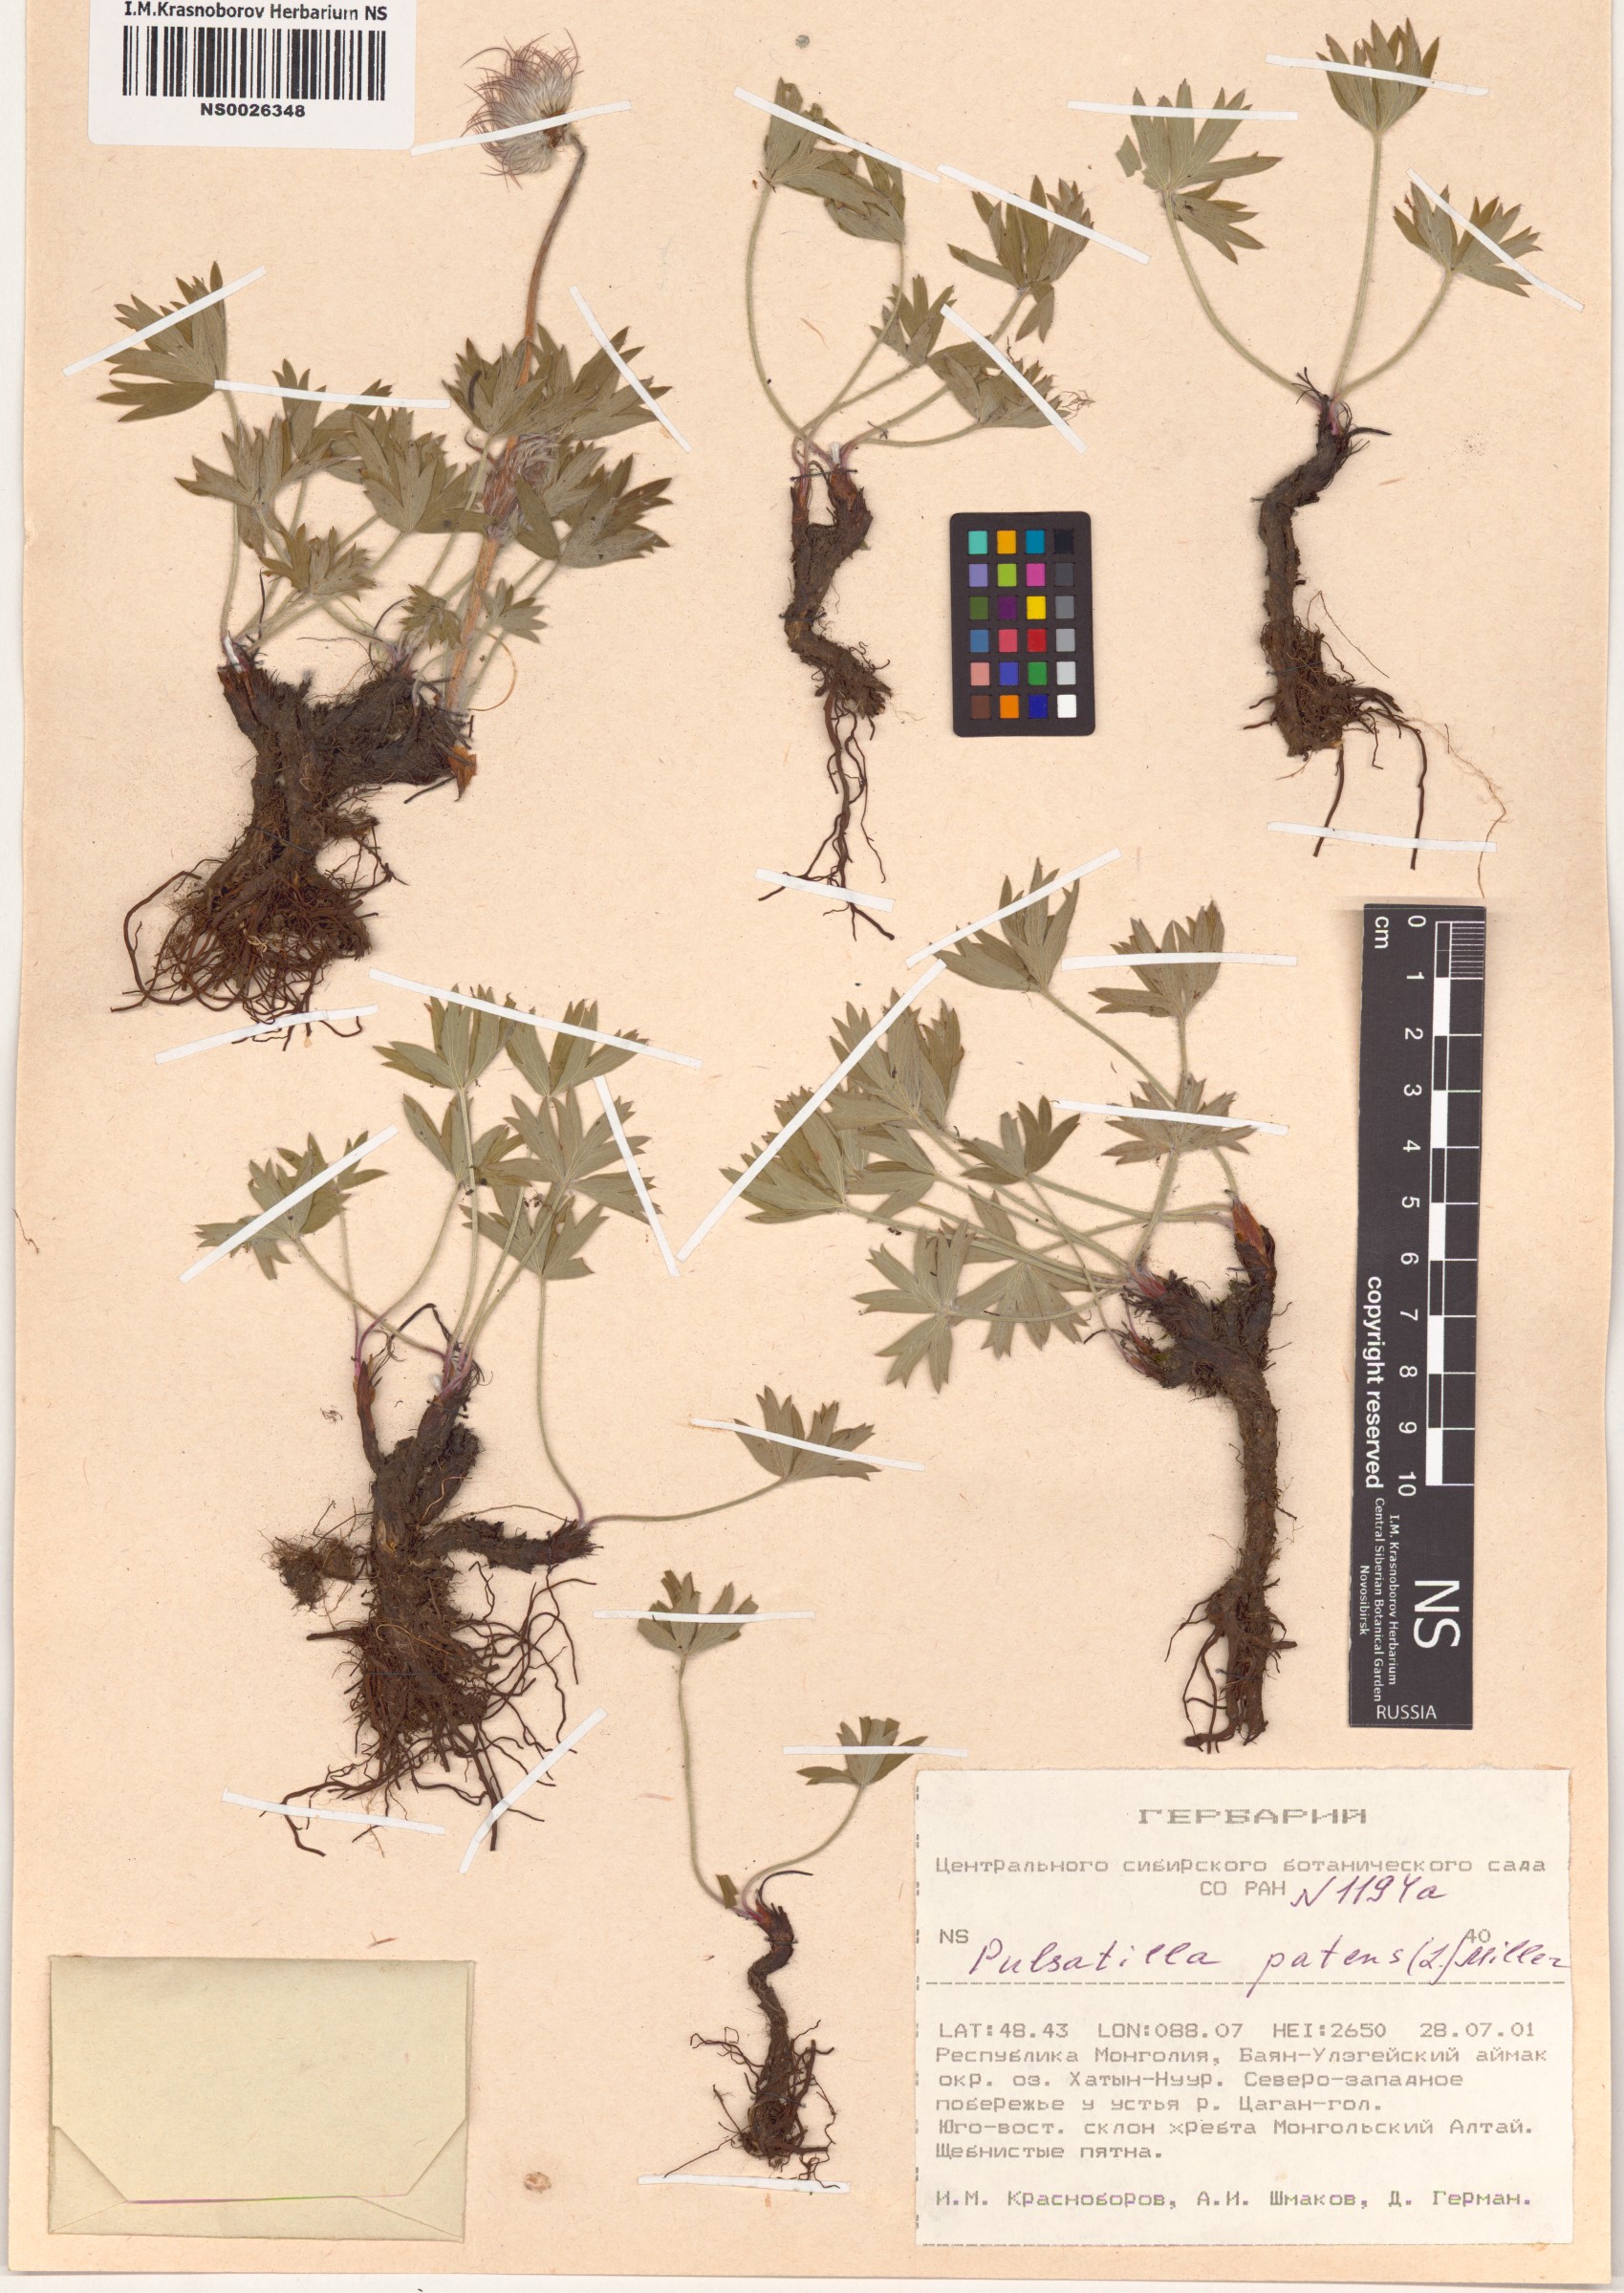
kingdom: Plantae
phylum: Tracheophyta
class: Magnoliopsida
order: Ranunculales
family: Ranunculaceae
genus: Pulsatilla
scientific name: Pulsatilla patens
